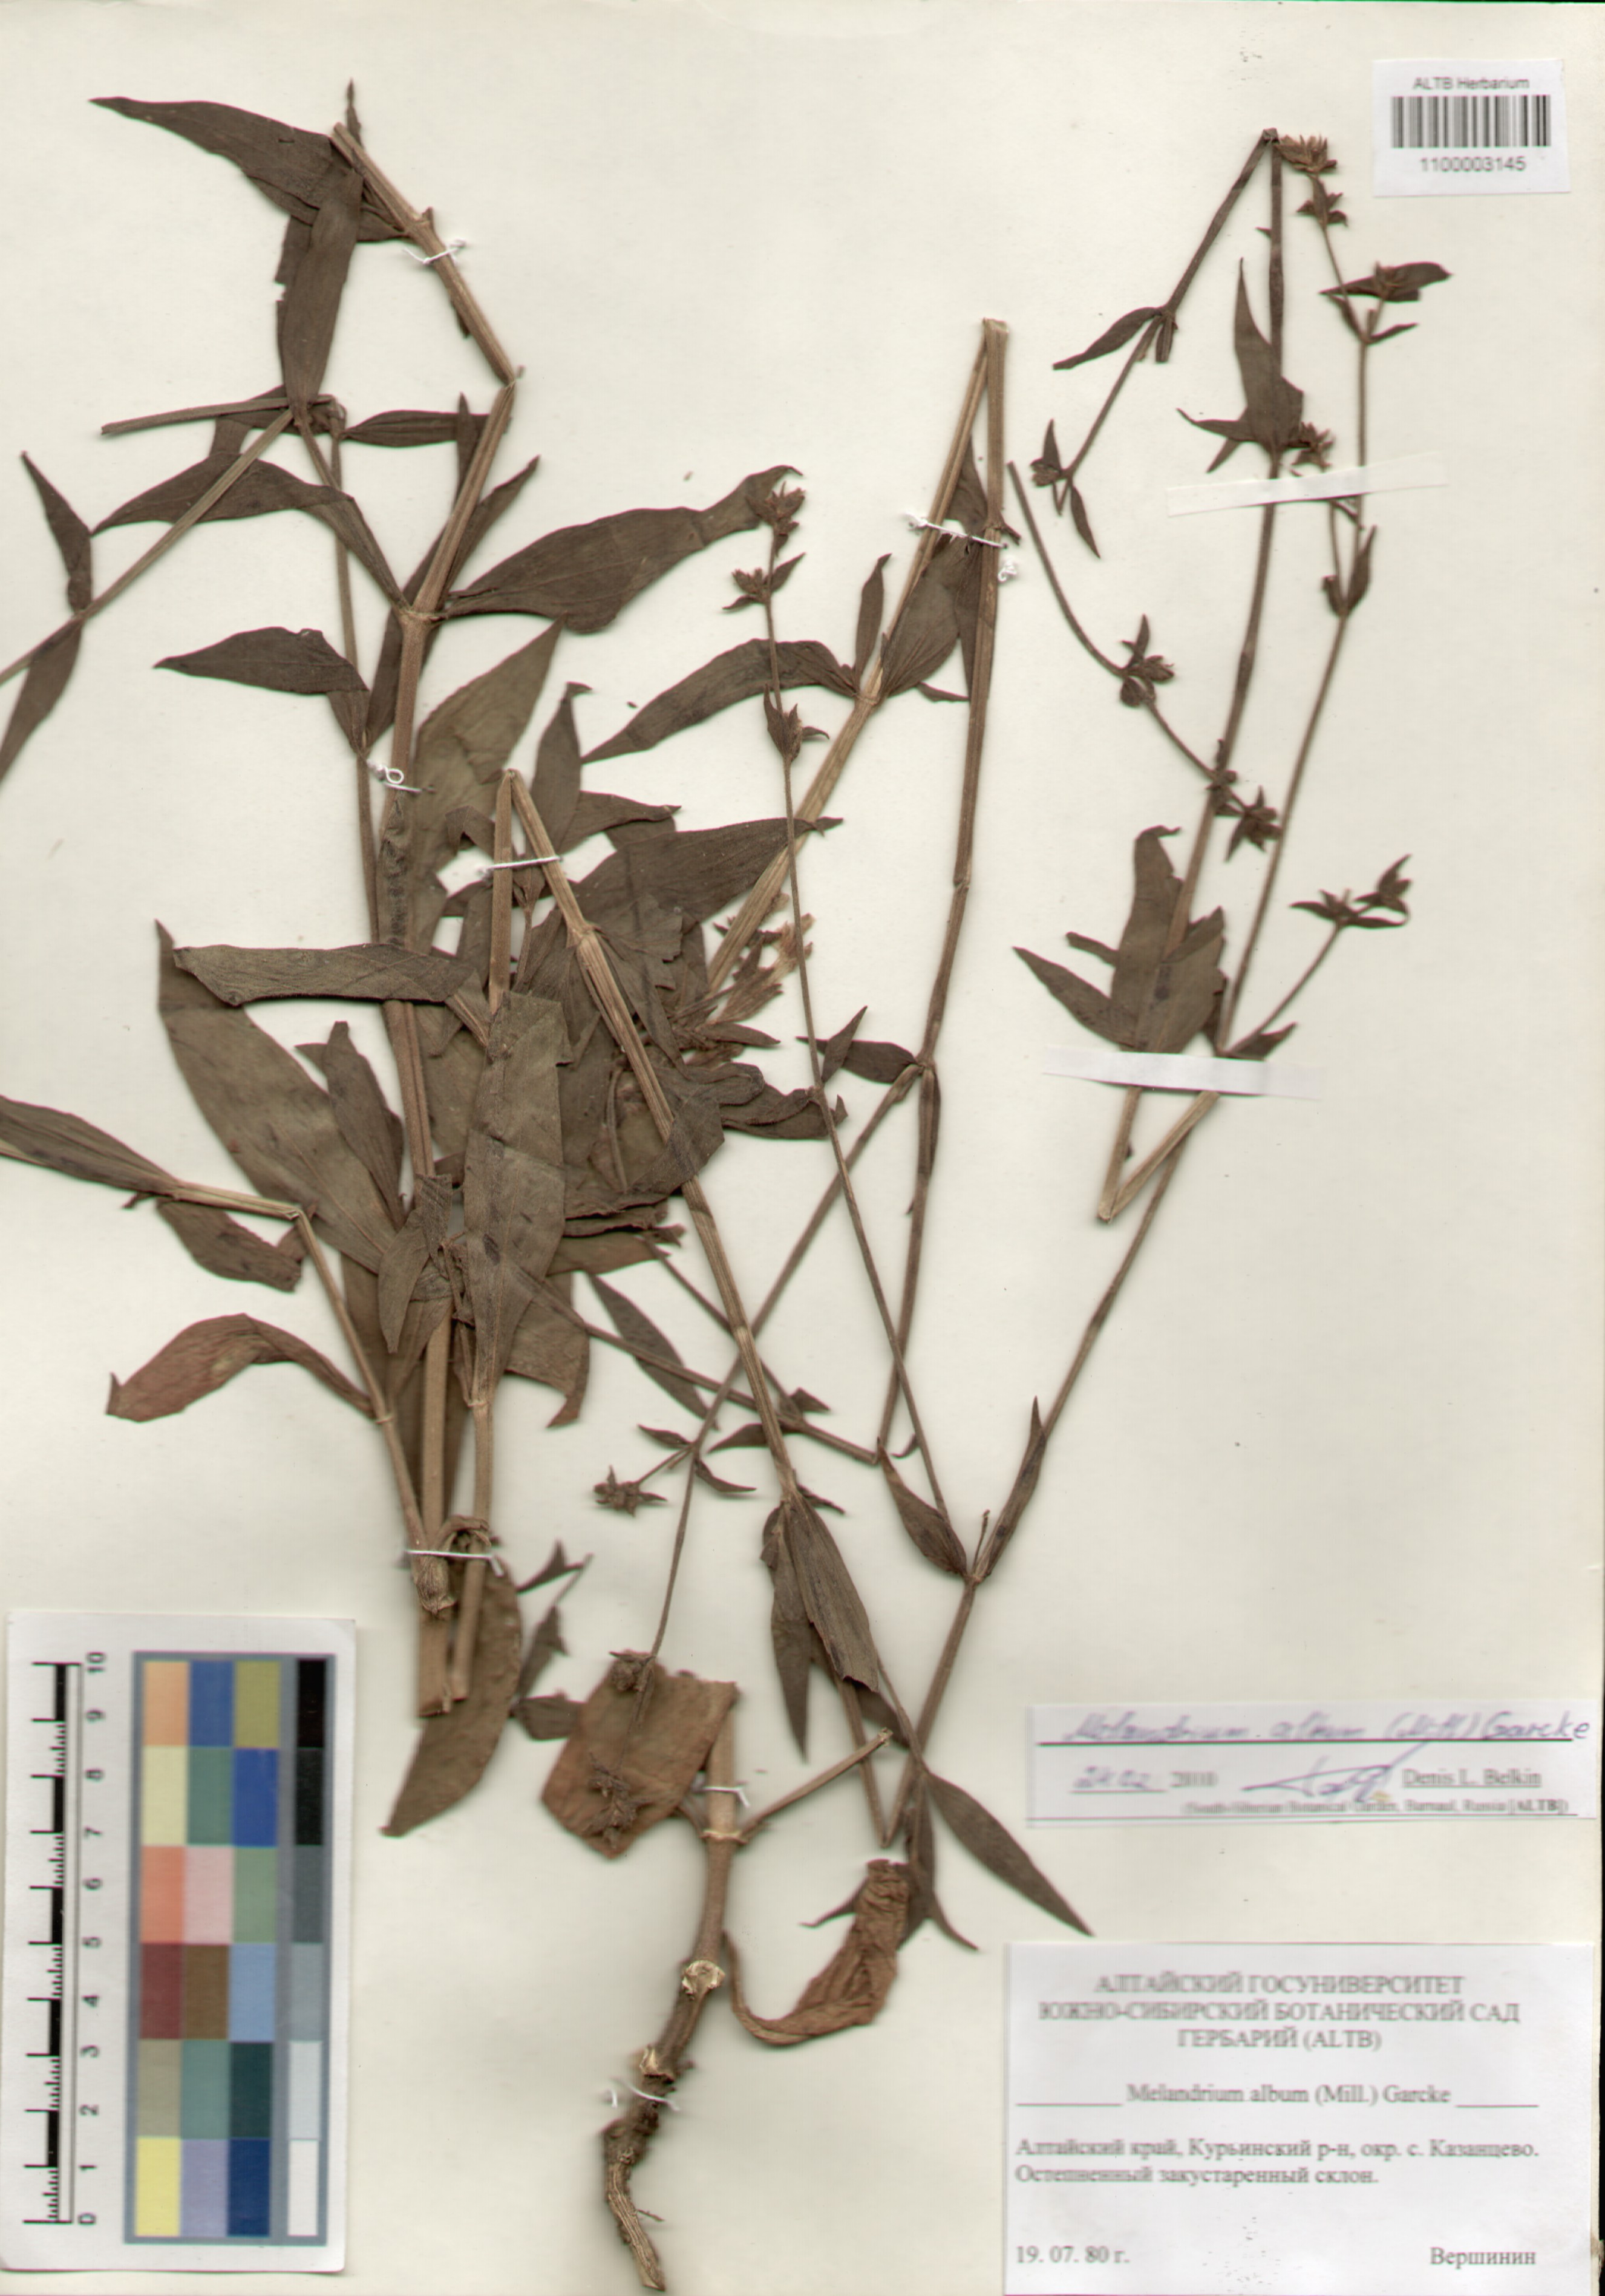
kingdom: Plantae
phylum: Tracheophyta
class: Magnoliopsida
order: Caryophyllales
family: Caryophyllaceae
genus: Silene
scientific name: Silene latifolia
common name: White campion
